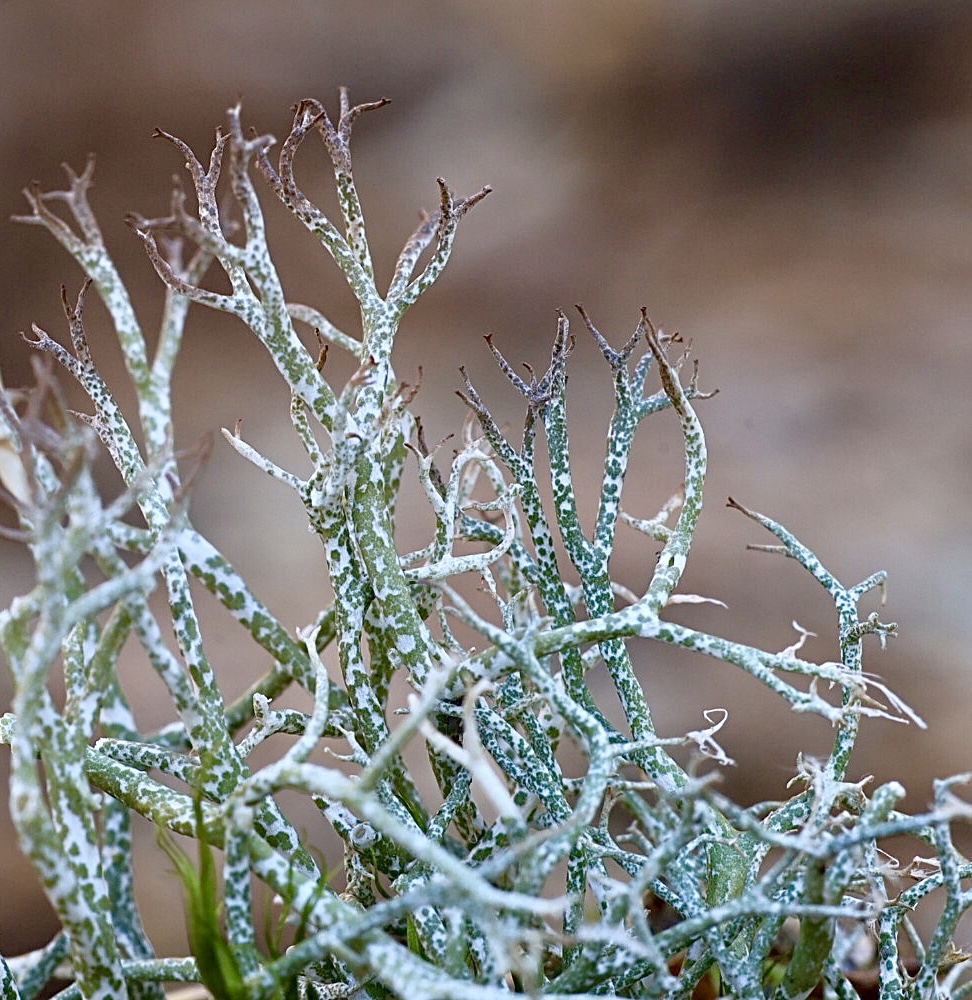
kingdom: Fungi
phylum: Ascomycota
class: Lecanoromycetes
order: Lecanorales
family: Cladoniaceae
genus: Cladonia
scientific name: Cladonia rangiformis
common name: spættet bægerlav
